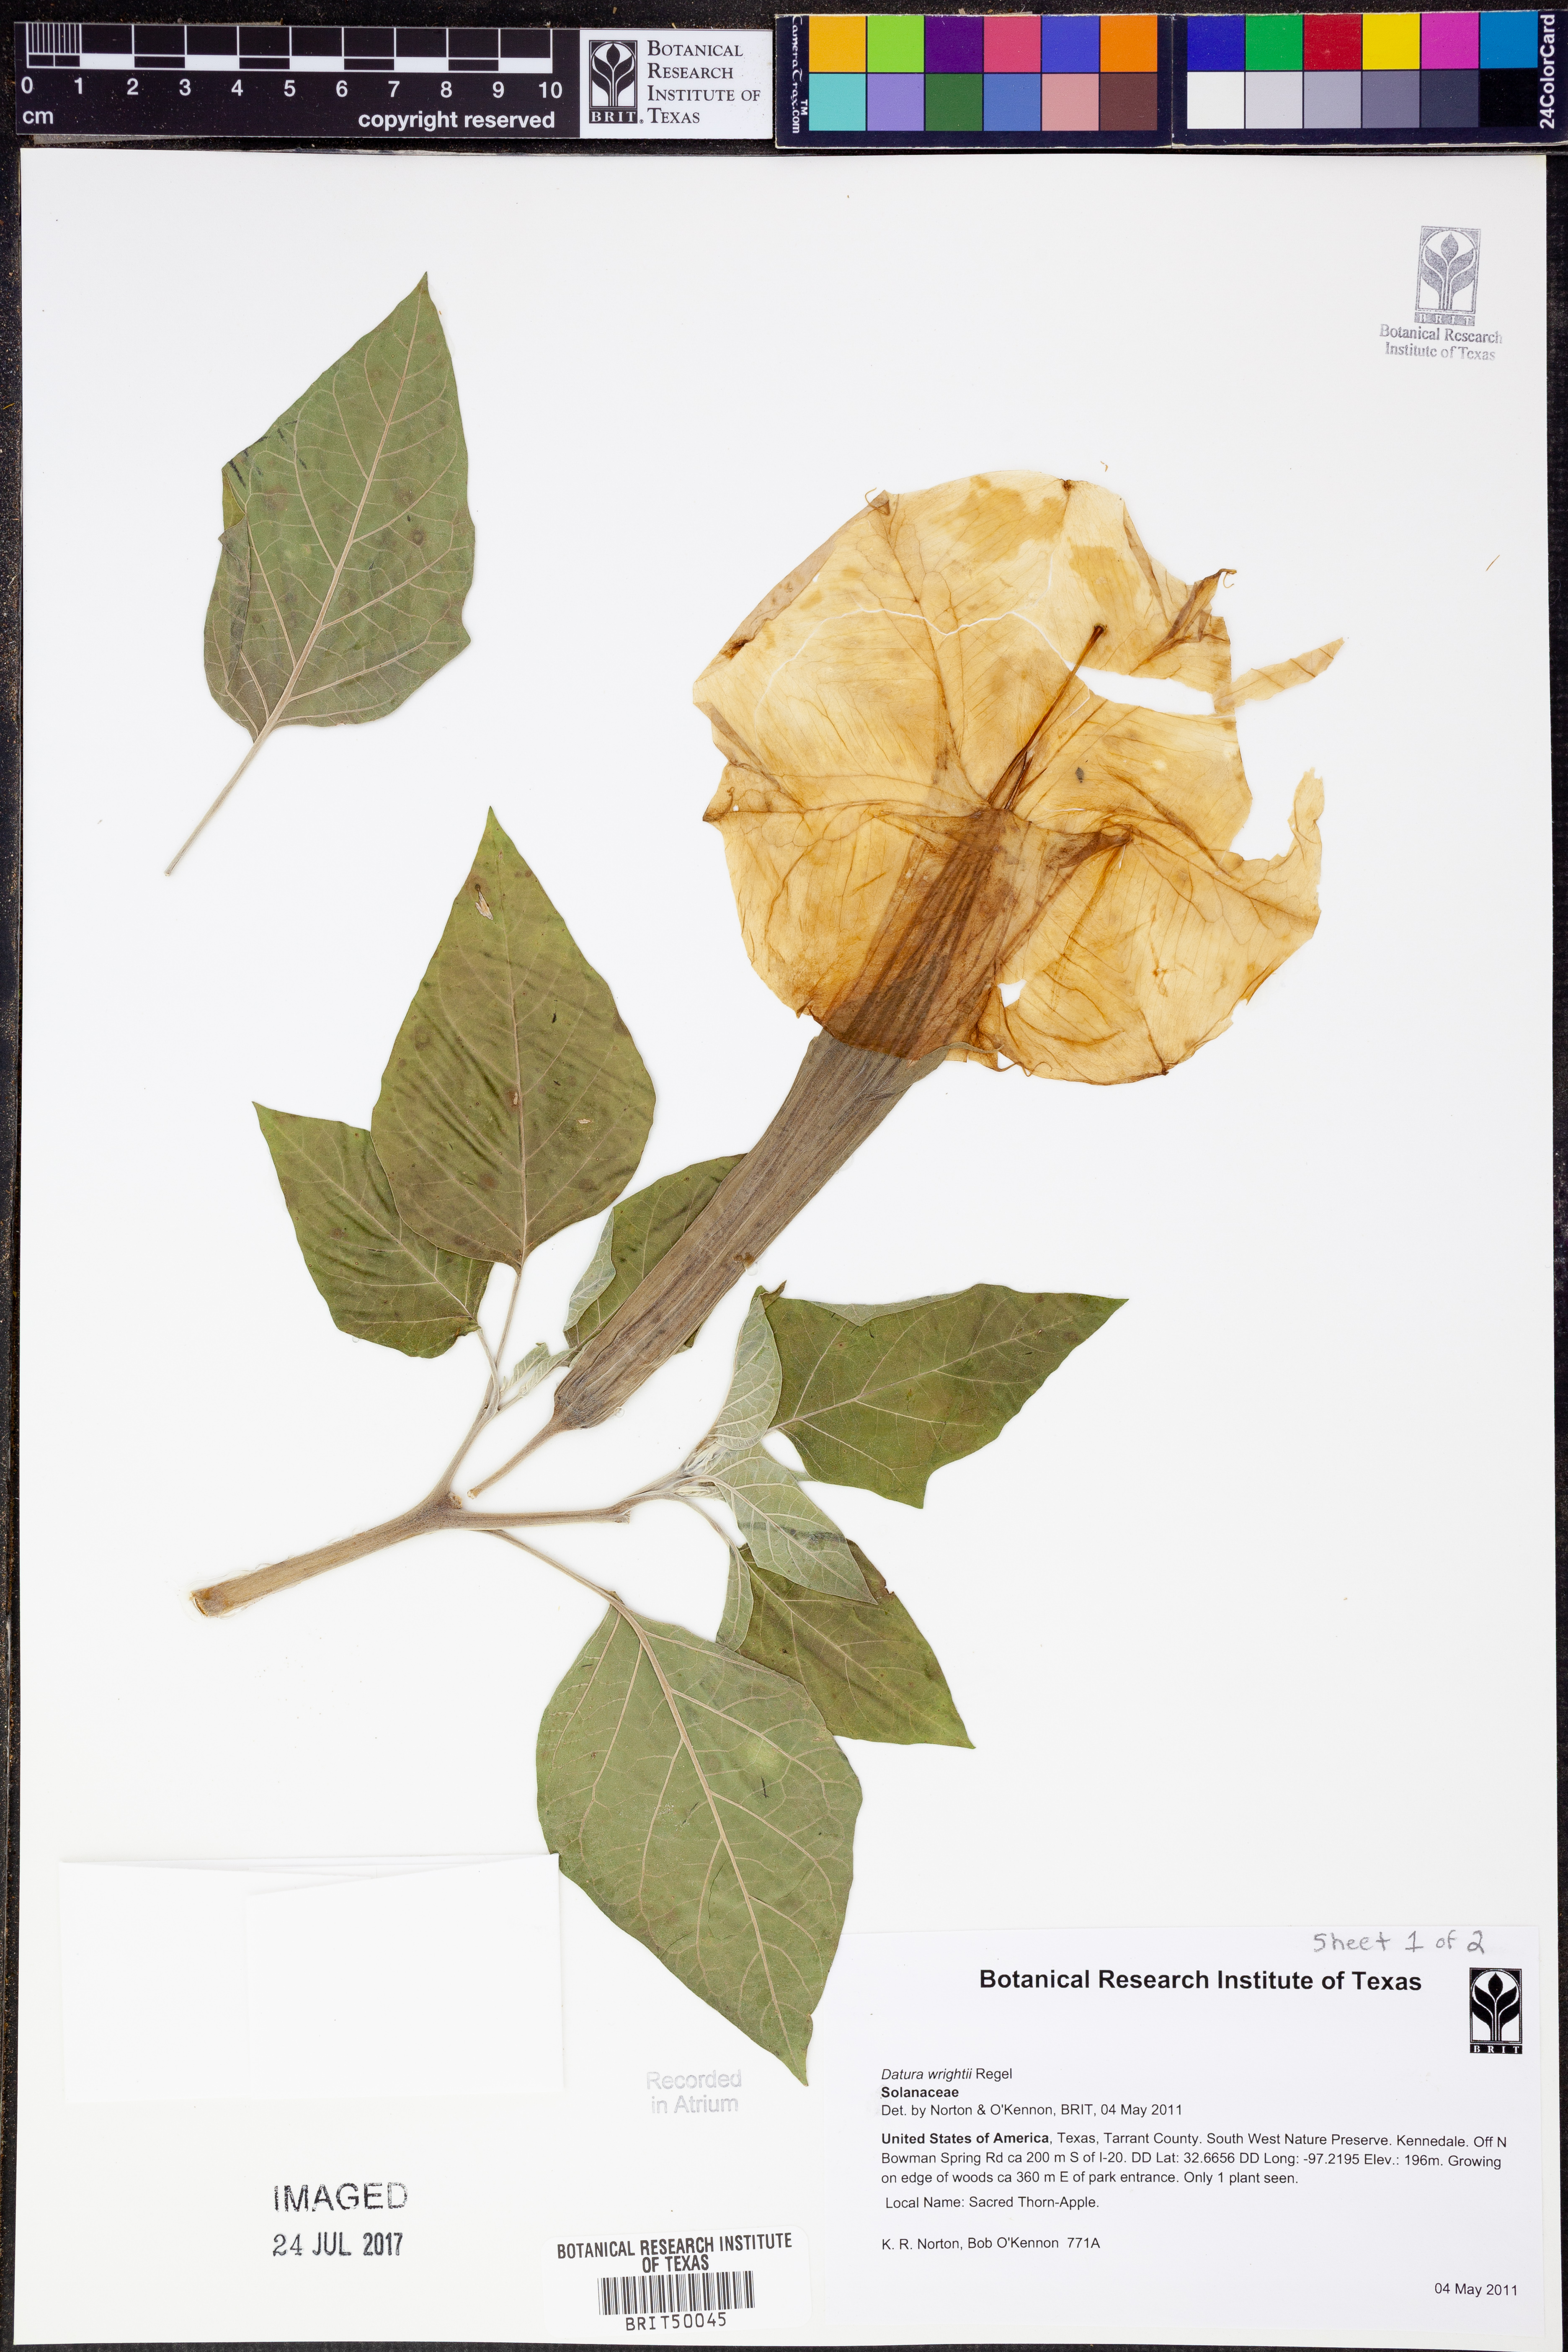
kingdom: Plantae
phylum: Tracheophyta
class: Magnoliopsida
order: Solanales
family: Solanaceae
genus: Datura
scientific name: Datura wrightii
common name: Sacred thorn-apple
